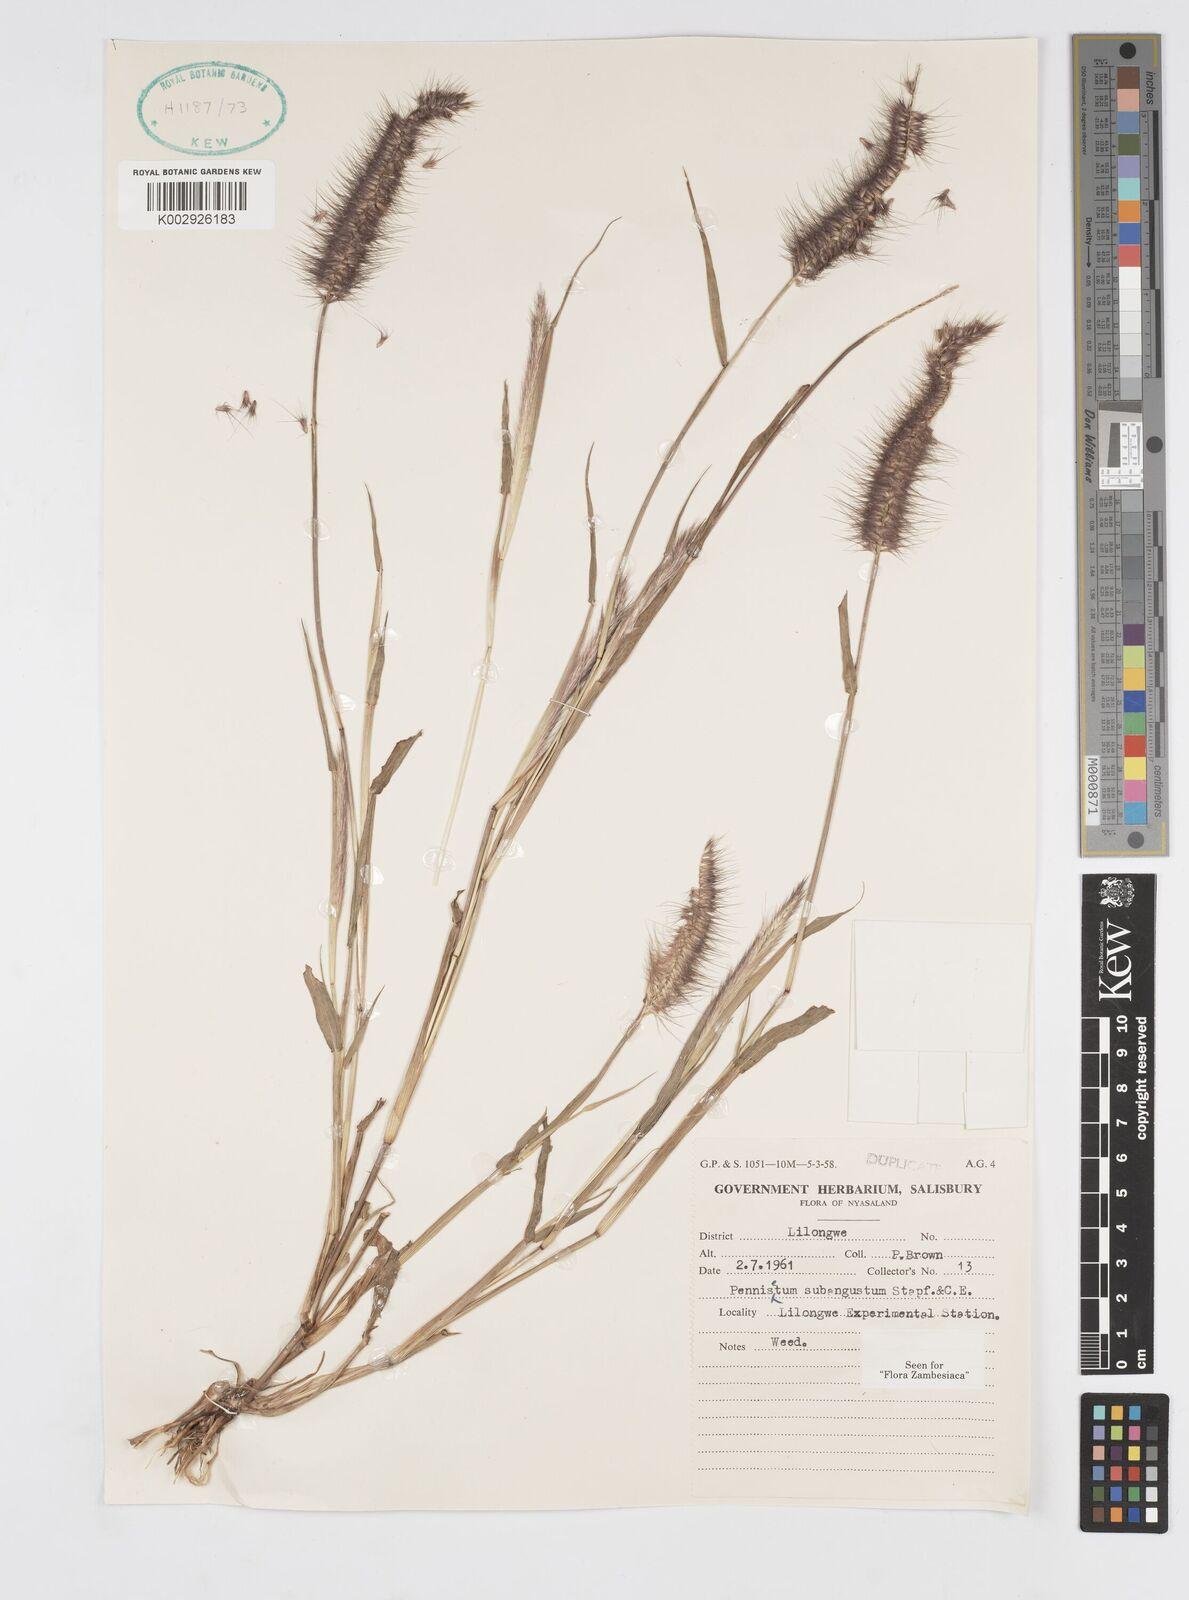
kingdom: Plantae
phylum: Tracheophyta
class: Liliopsida
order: Poales
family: Poaceae
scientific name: Poaceae
